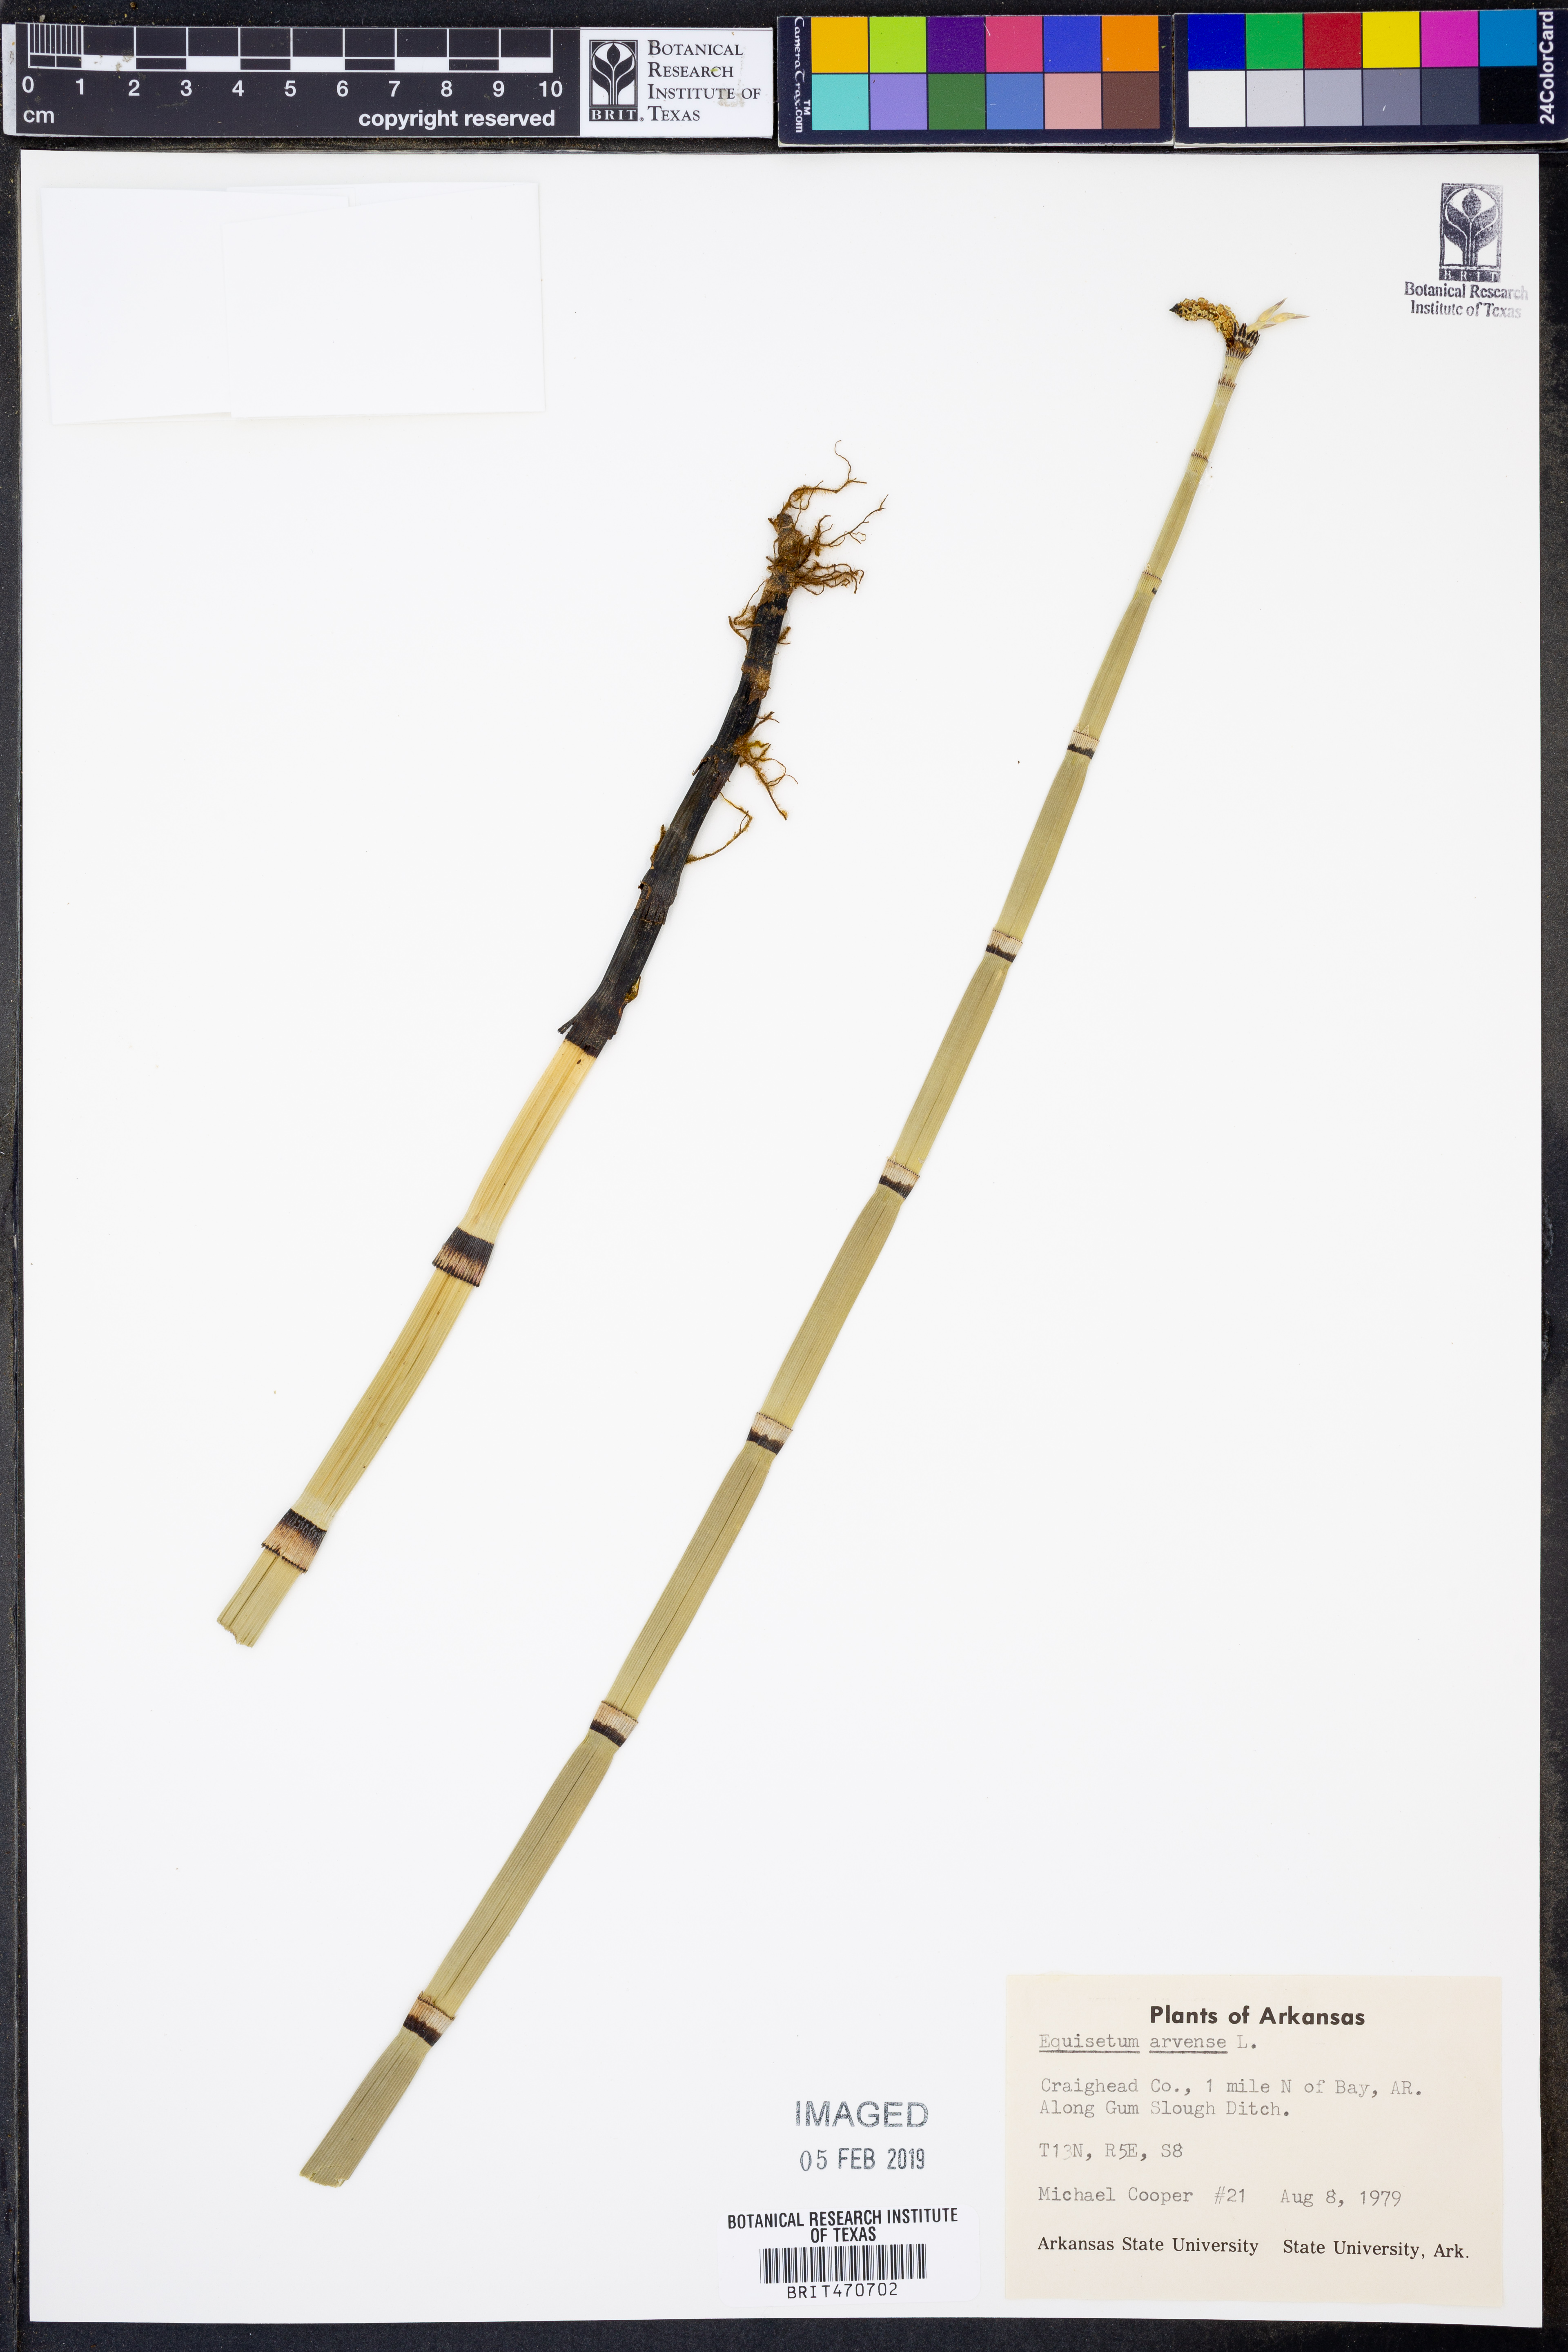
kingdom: Plantae
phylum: Tracheophyta
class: Polypodiopsida
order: Equisetales
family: Equisetaceae
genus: Equisetum
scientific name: Equisetum arvense
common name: Field horsetail
